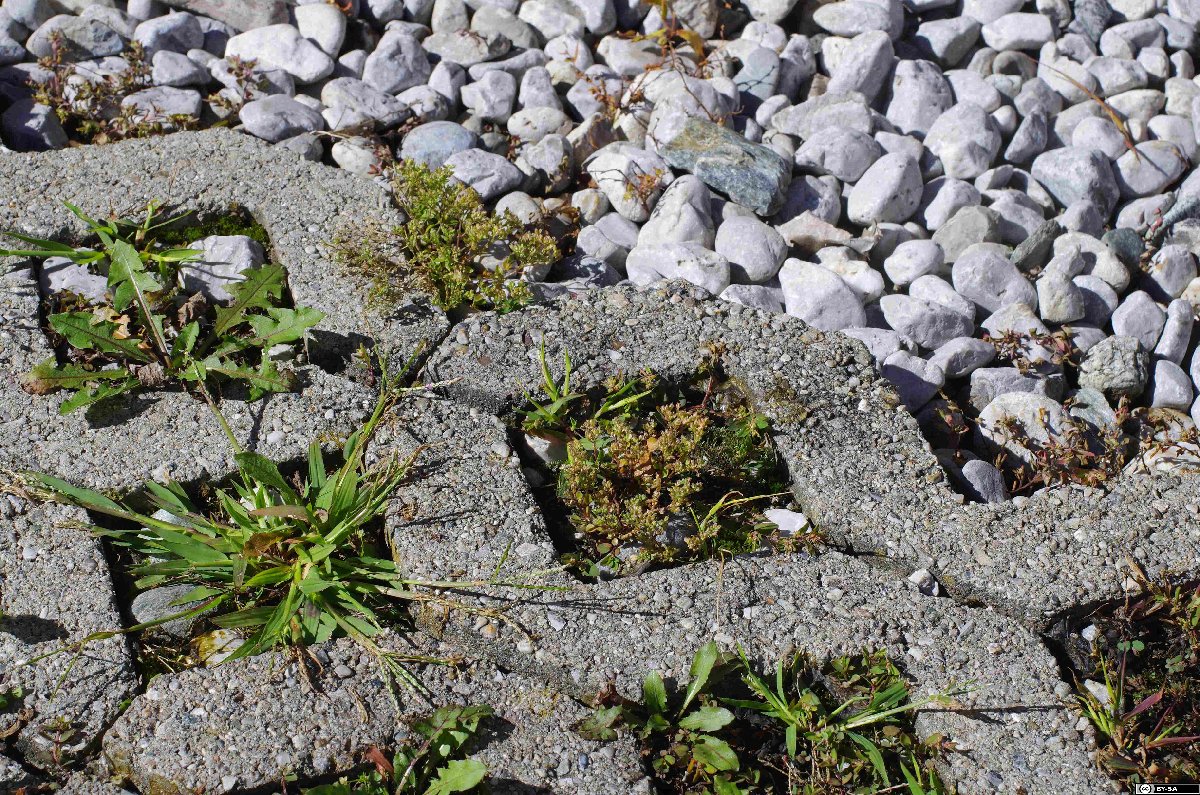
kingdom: Plantae
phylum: Tracheophyta
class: Magnoliopsida
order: Caryophyllales
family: Caryophyllaceae
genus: Polycarpon
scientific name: Polycarpon tetraphyllum
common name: Four-leaved all-seed
